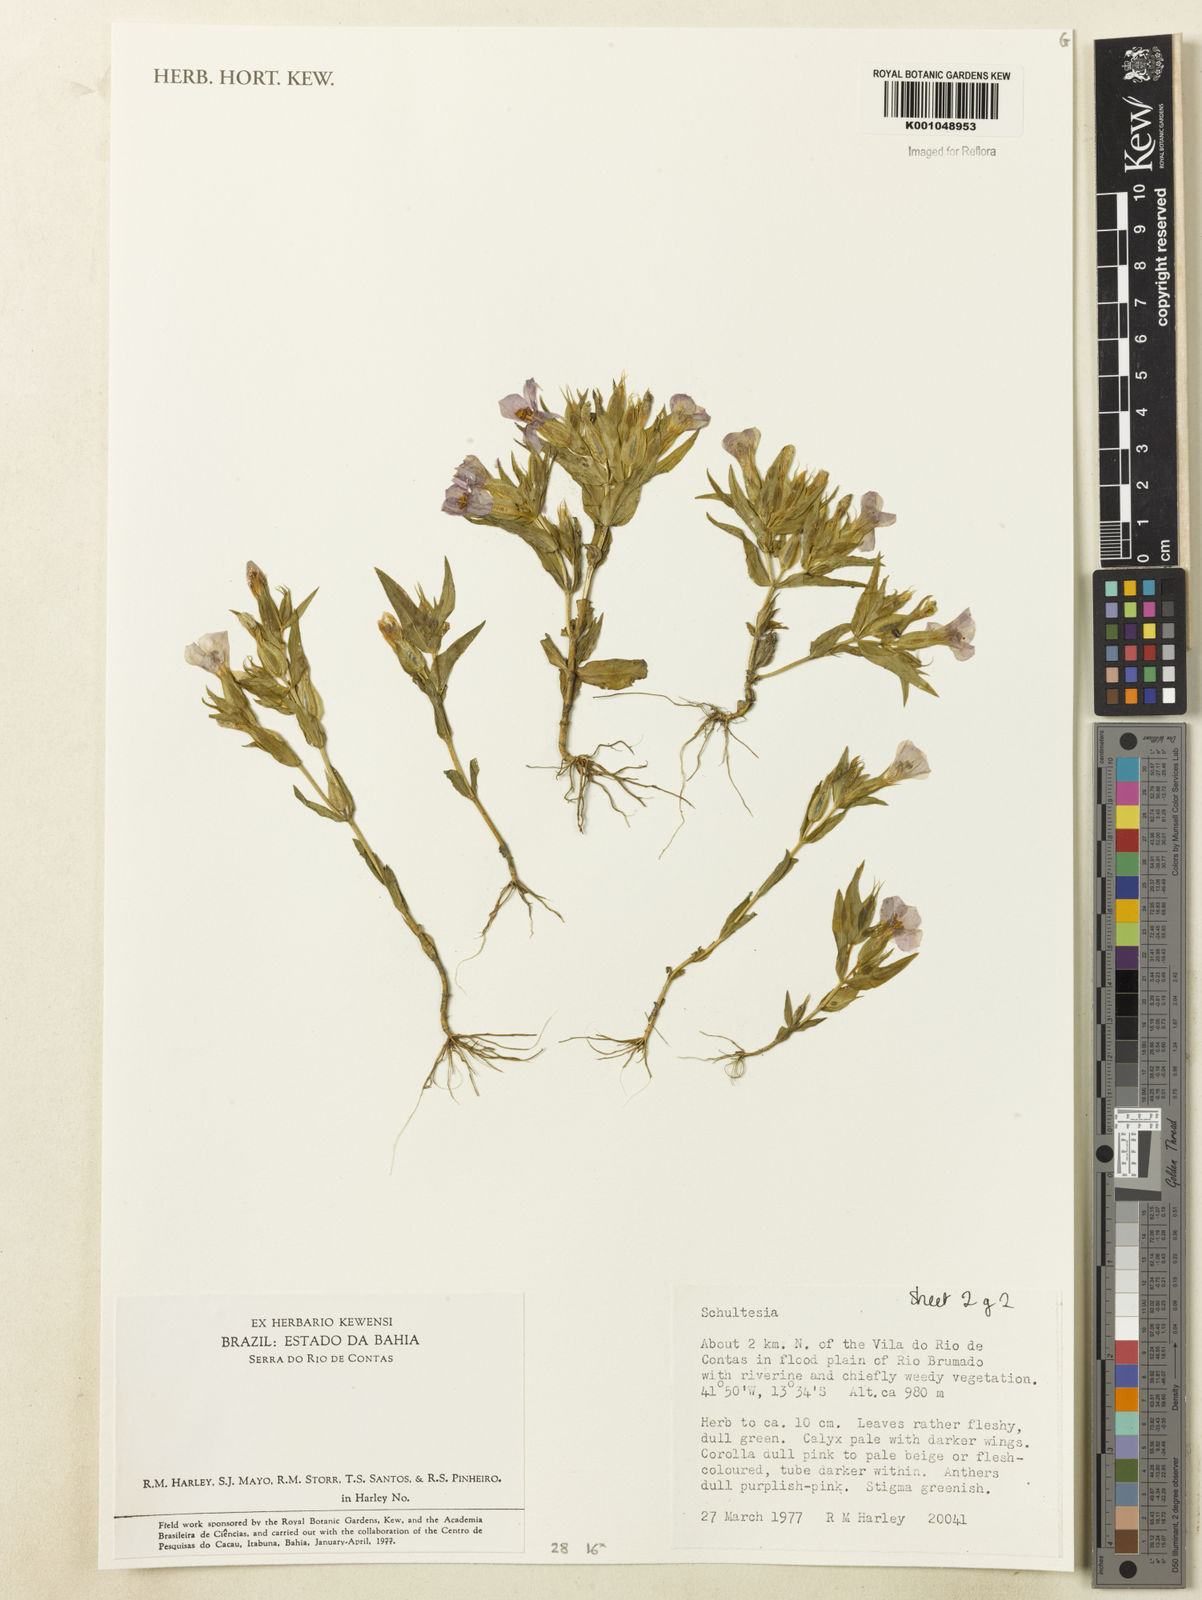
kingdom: Plantae
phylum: Tracheophyta
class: Magnoliopsida
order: Gentianales
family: Gentianaceae
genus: Schultesia
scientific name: Schultesia
